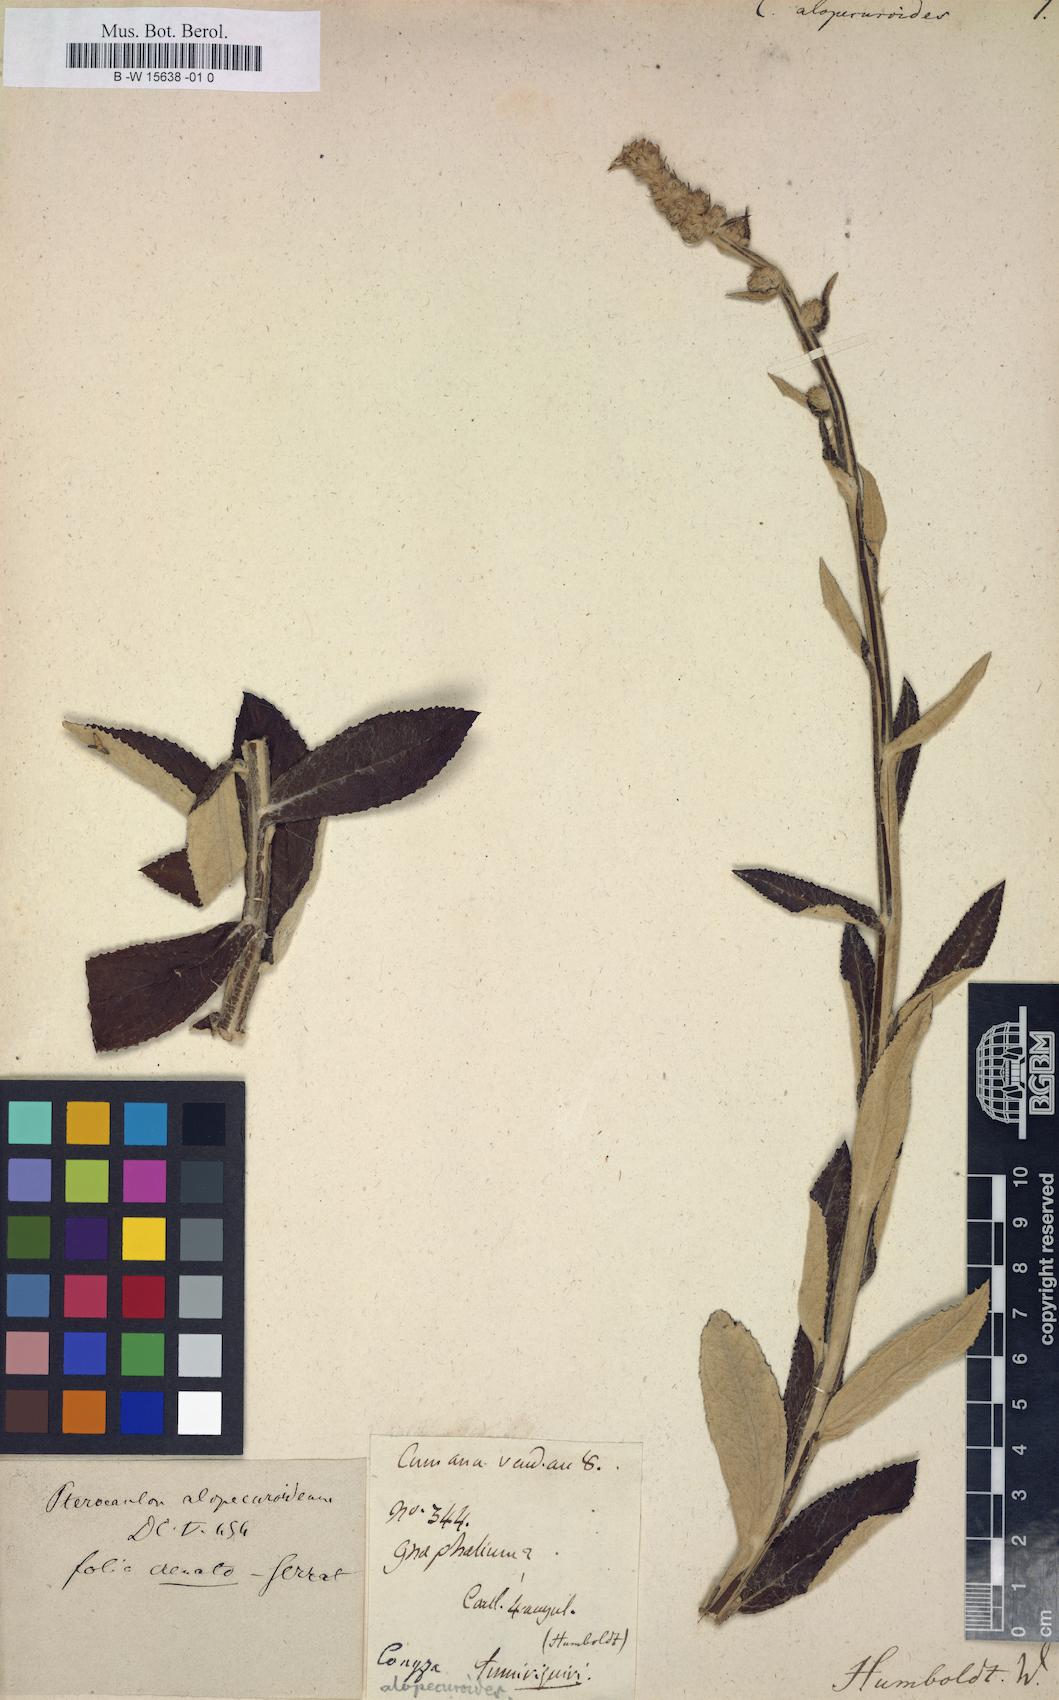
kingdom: Plantae
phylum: Tracheophyta
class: Magnoliopsida
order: Asterales
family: Asteraceae
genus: Pterocaulon
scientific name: Pterocaulon alopecuroides
